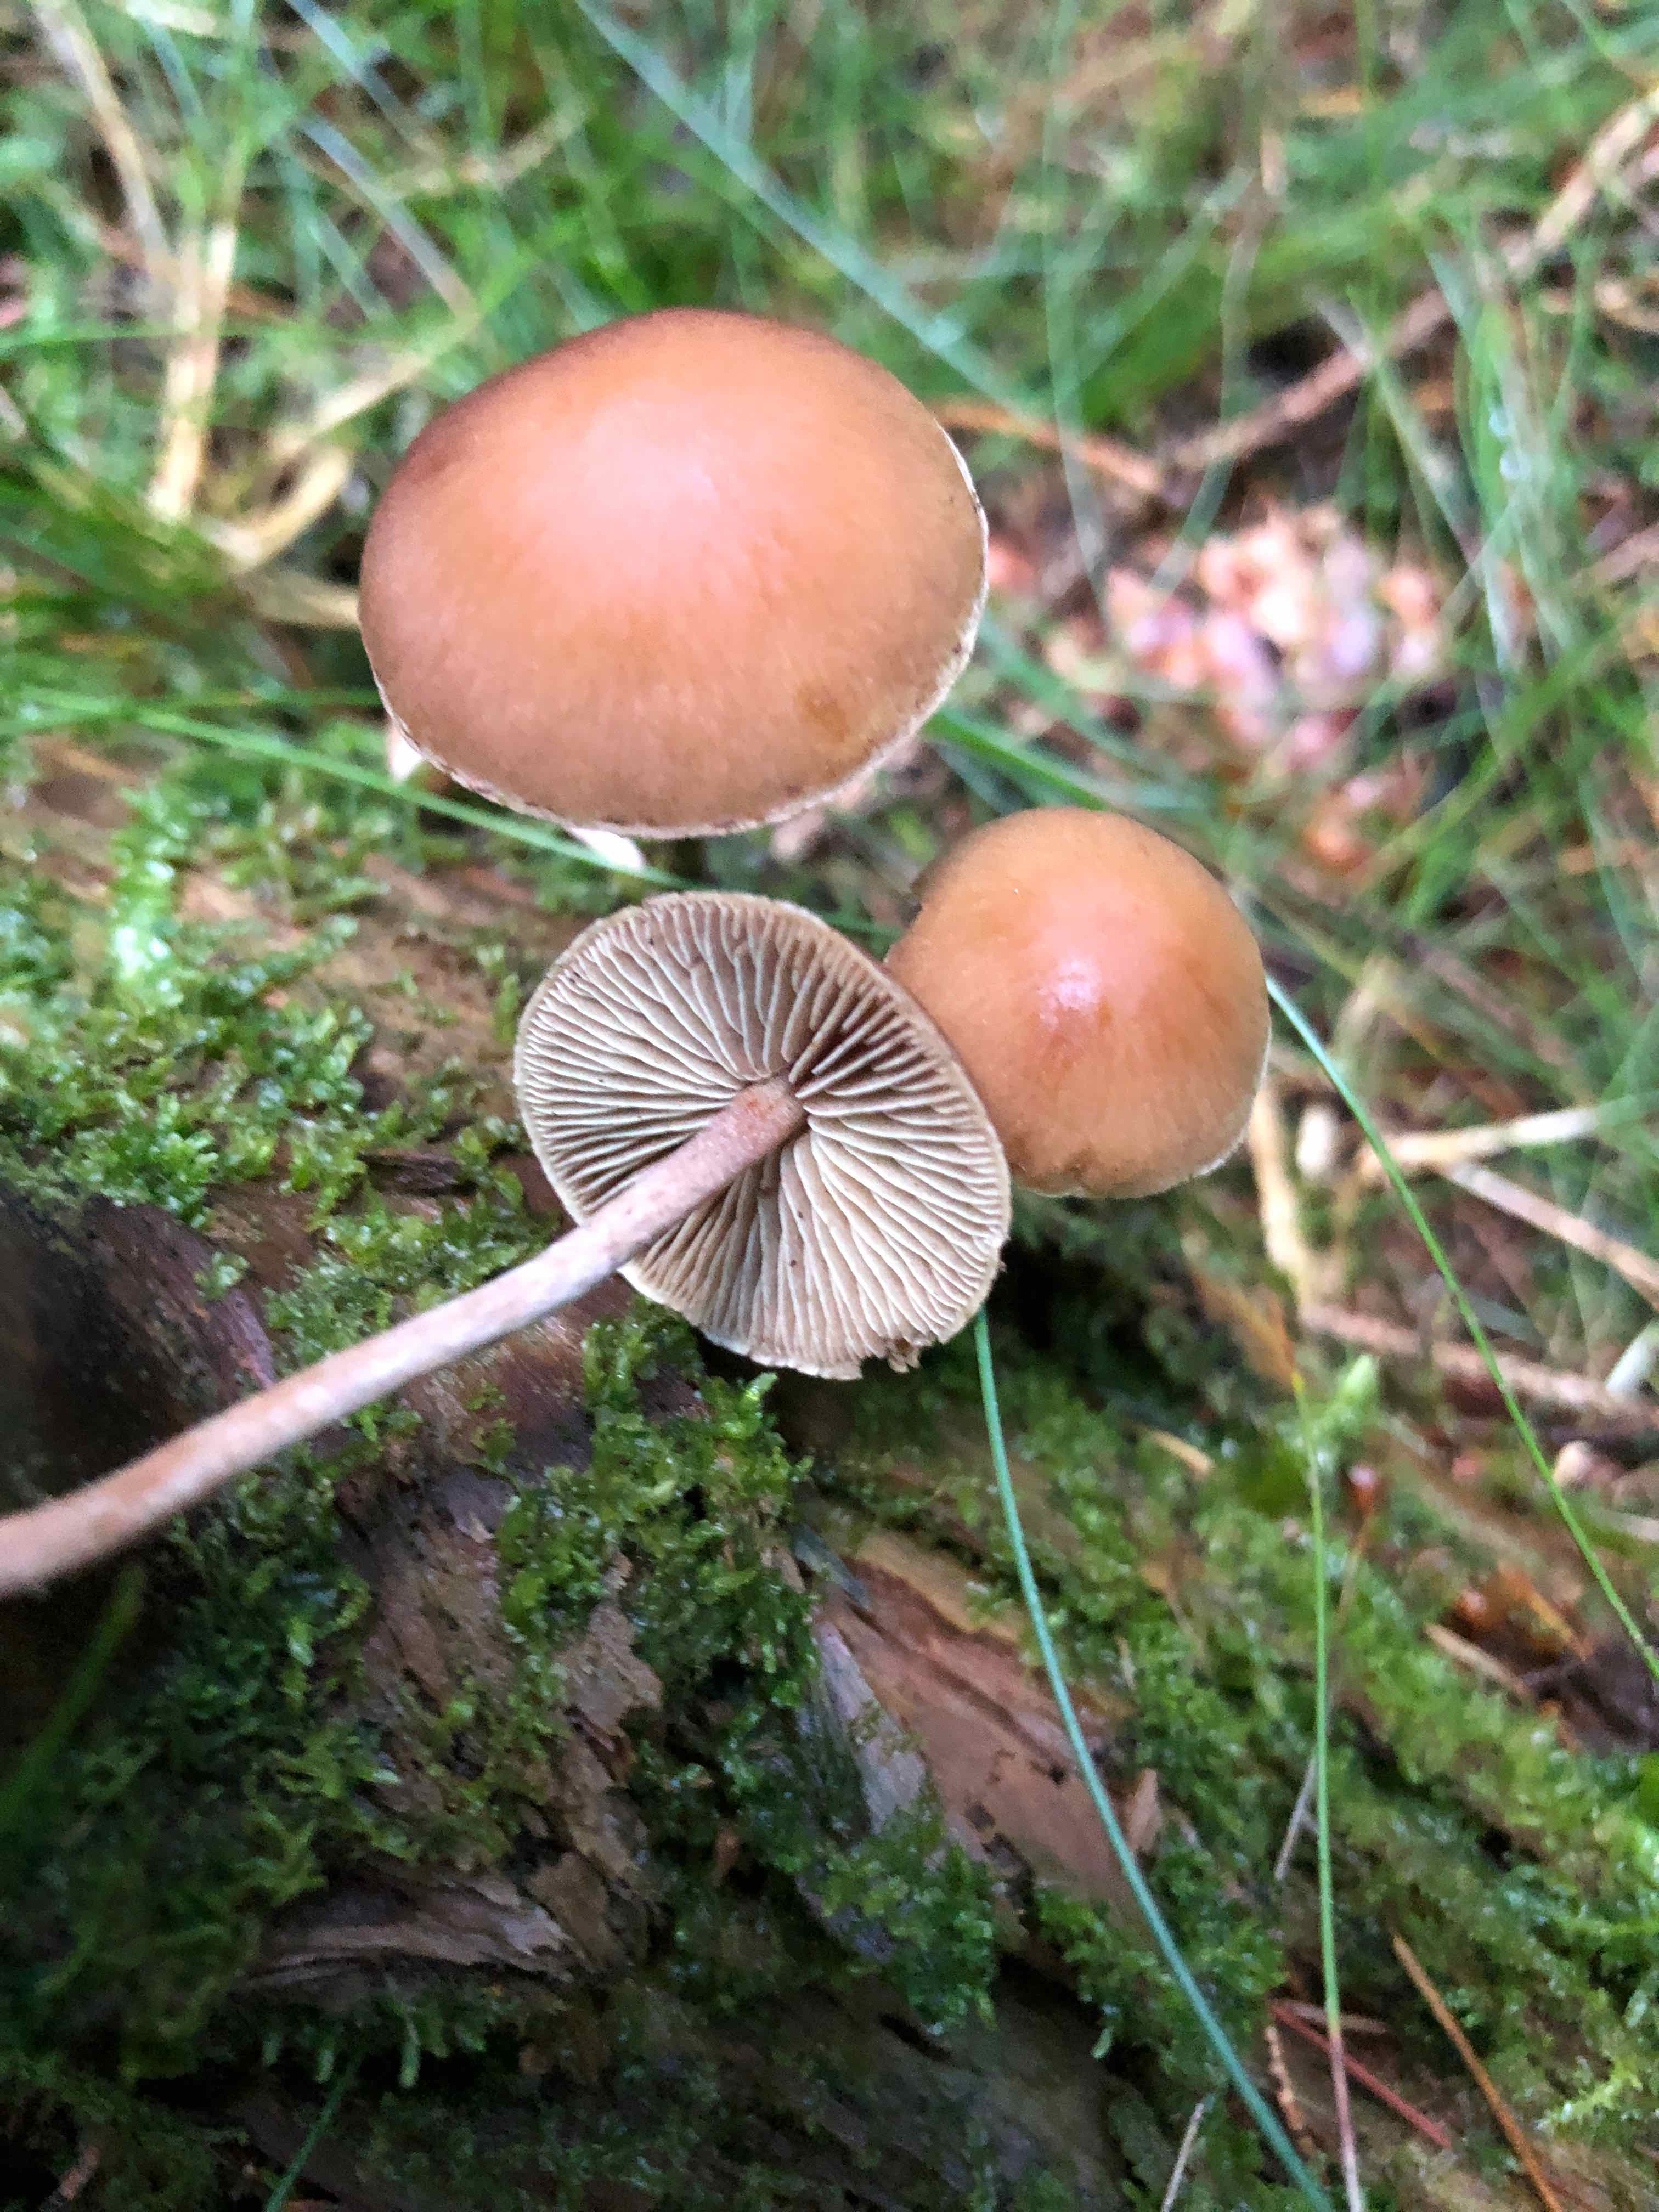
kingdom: Fungi
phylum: Basidiomycota
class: Agaricomycetes
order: Agaricales
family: Strophariaceae
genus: Hypholoma
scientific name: Hypholoma marginatum
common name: enlig svovlhat
